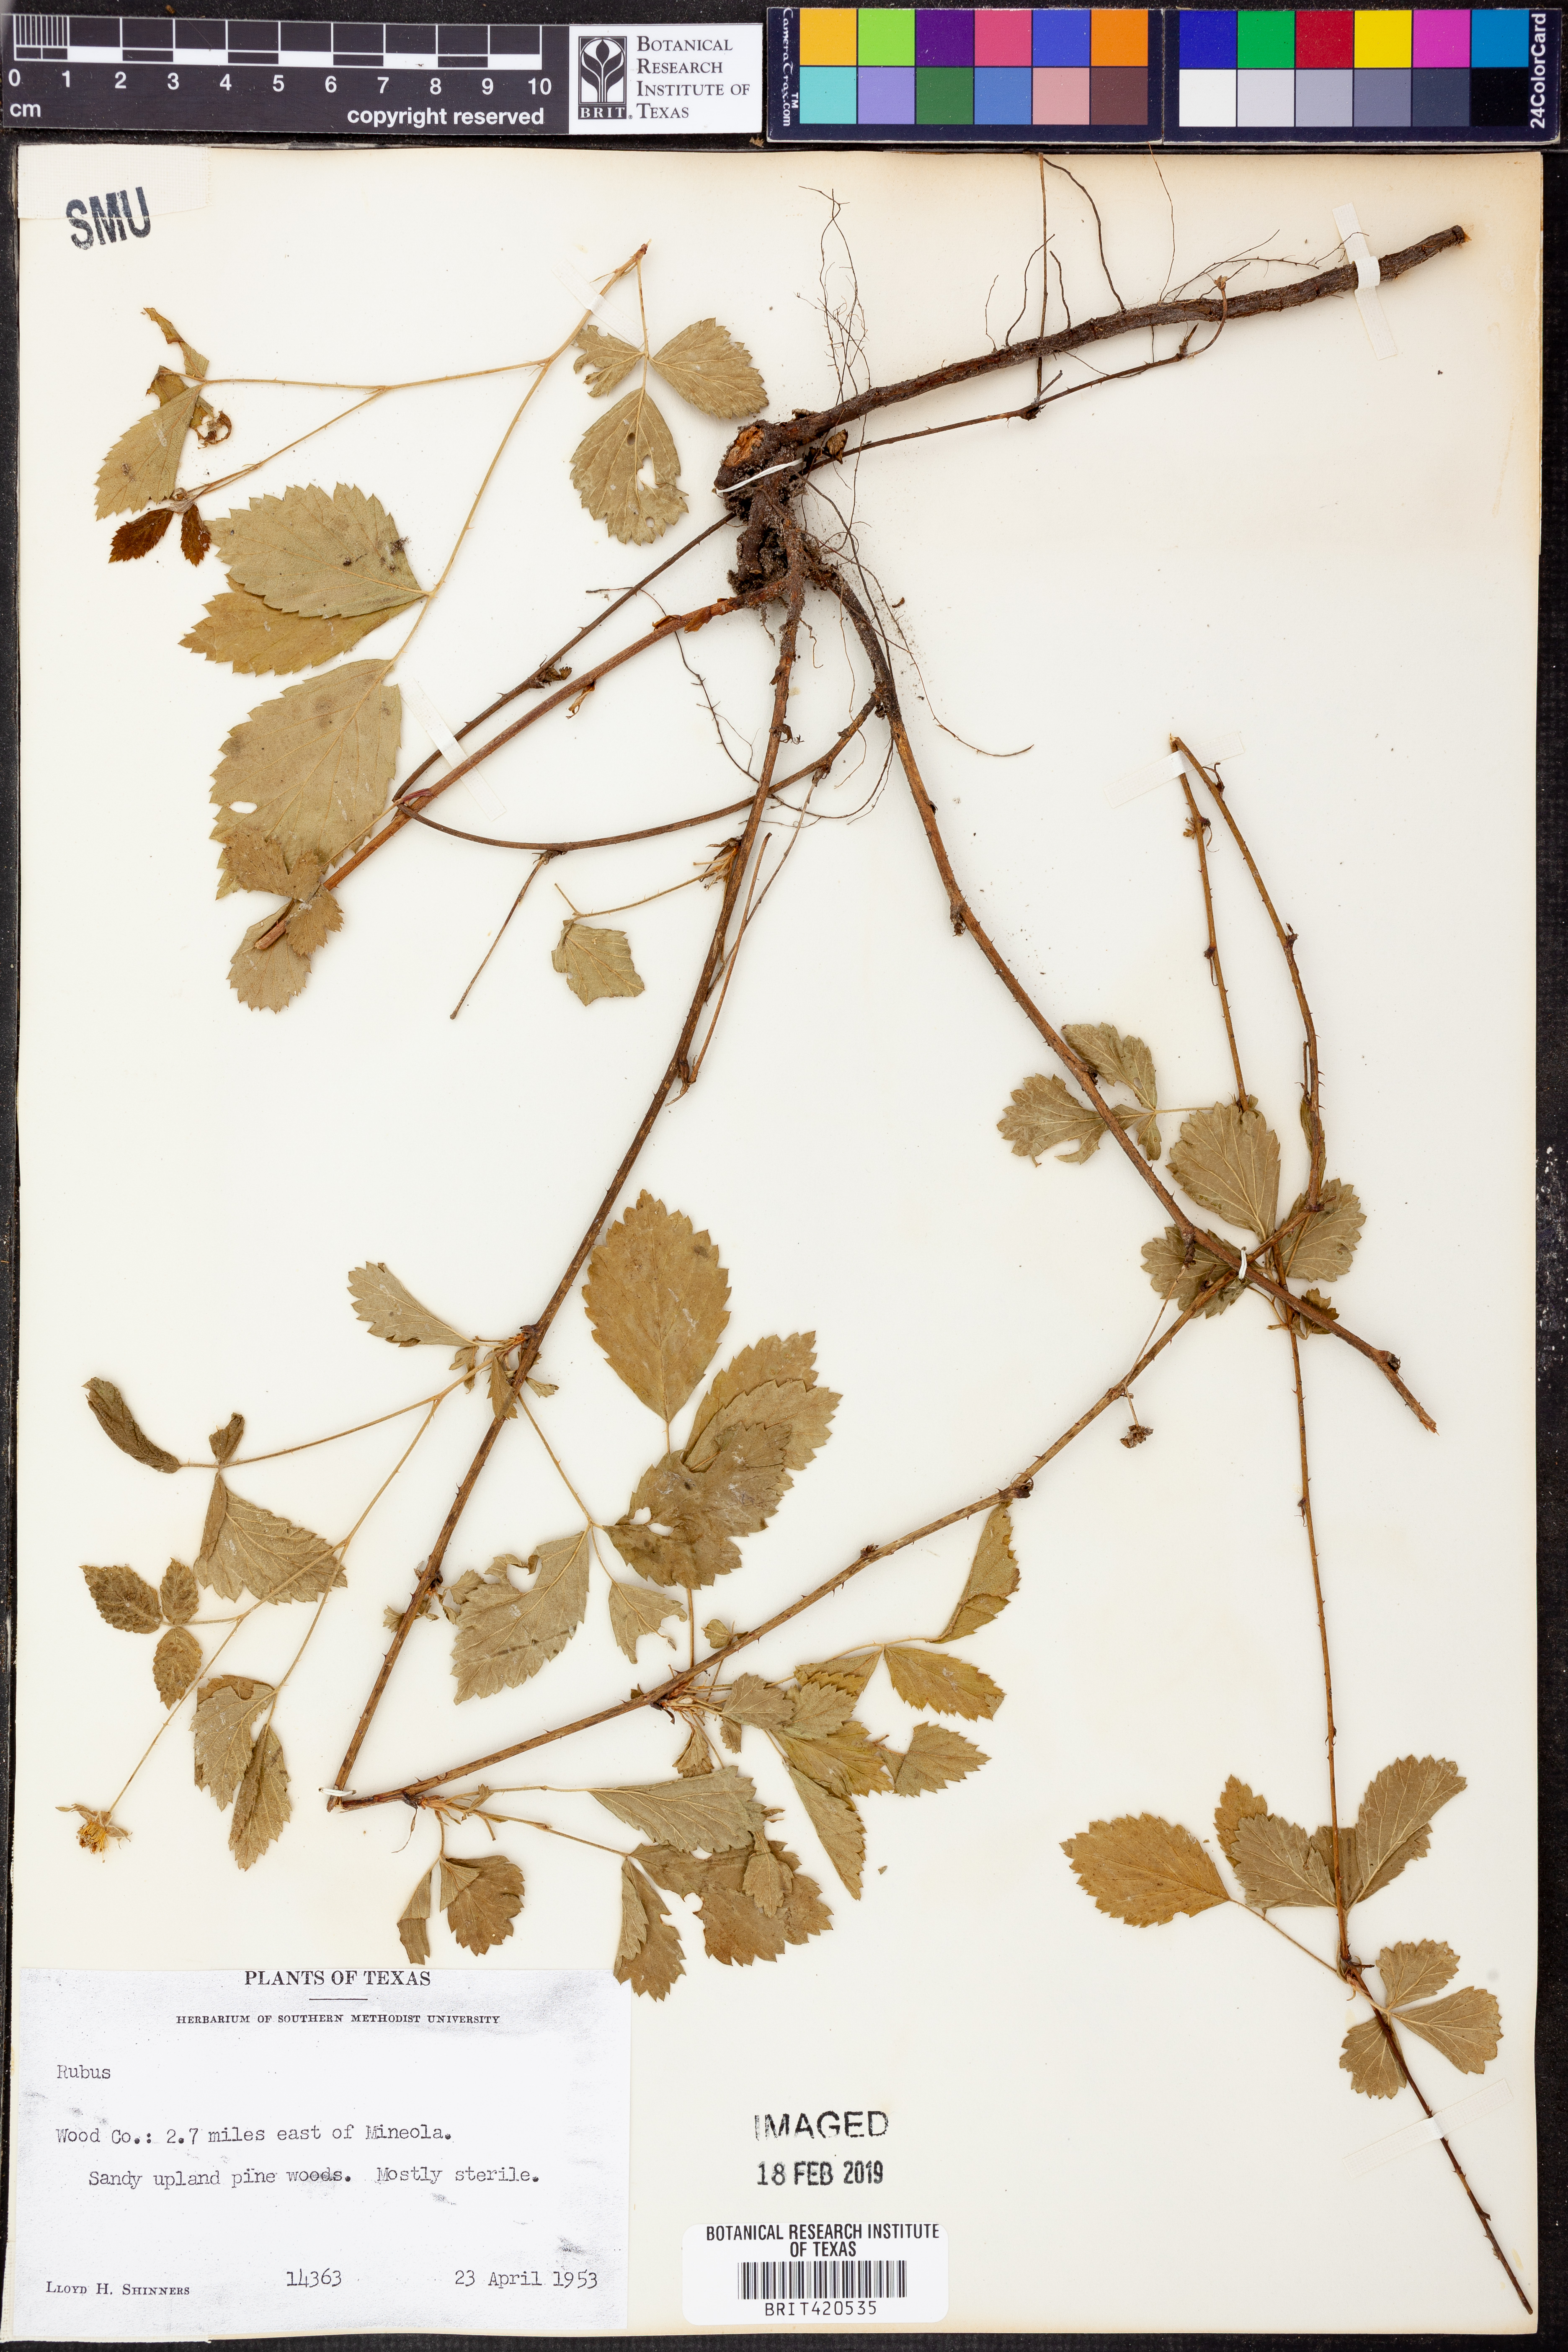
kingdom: Plantae
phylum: Tracheophyta
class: Magnoliopsida
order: Rosales
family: Rosaceae
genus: Rubus
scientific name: Rubus
